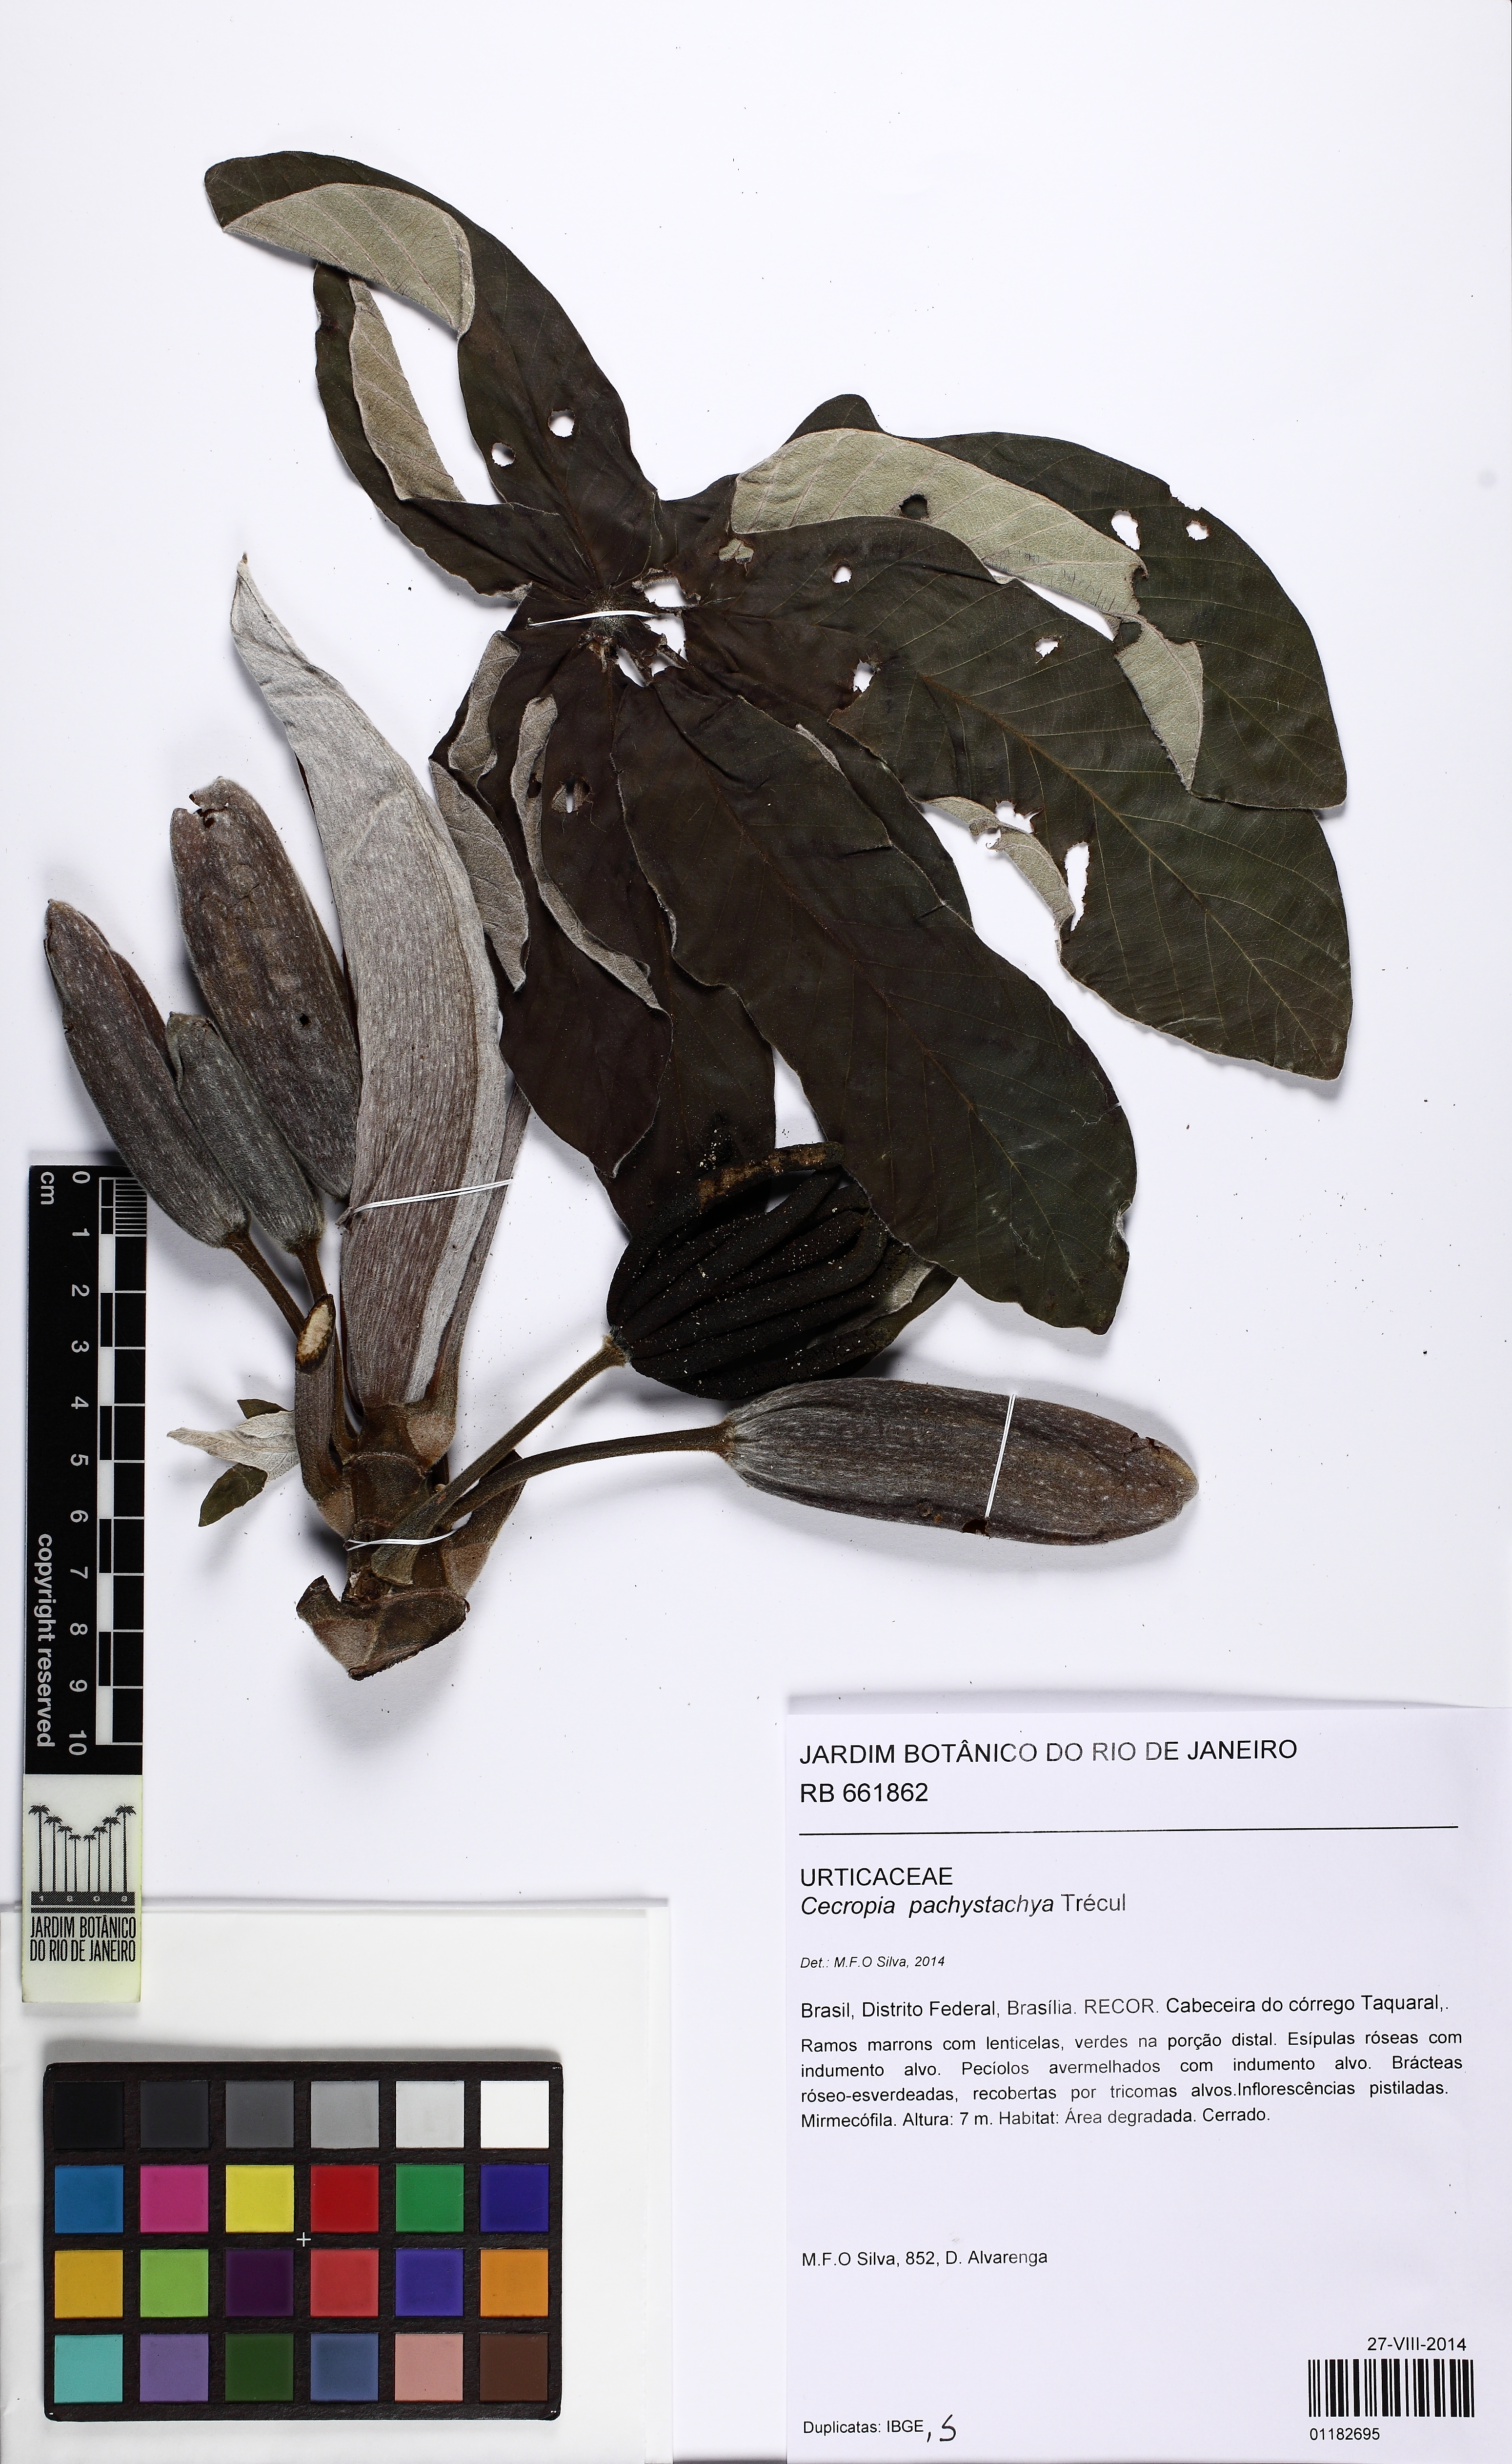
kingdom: Plantae
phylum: Tracheophyta
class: Magnoliopsida
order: Rosales
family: Urticaceae
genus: Cecropia
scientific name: Cecropia pachystachya
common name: Ambay pumpwood
